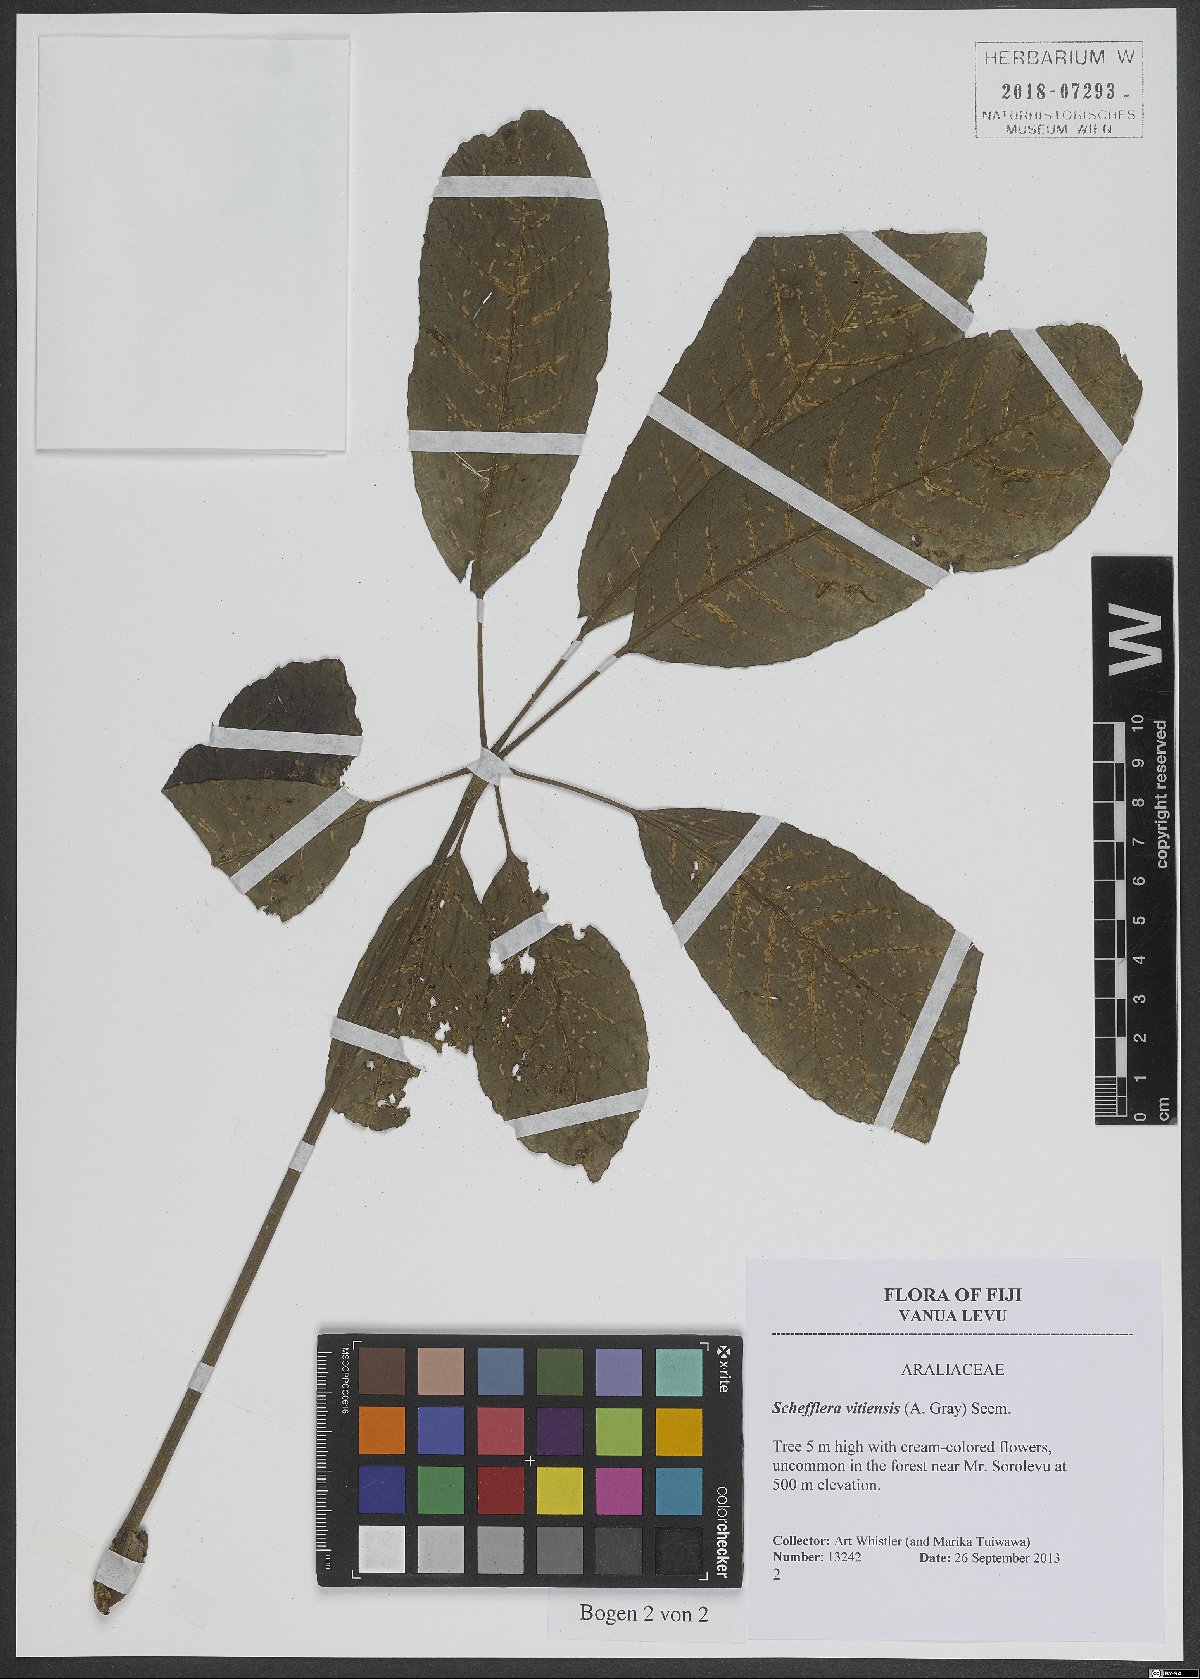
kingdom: Plantae
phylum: Tracheophyta
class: Magnoliopsida
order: Apiales
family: Araliaceae
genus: Schefflera
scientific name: Schefflera vitiensis
